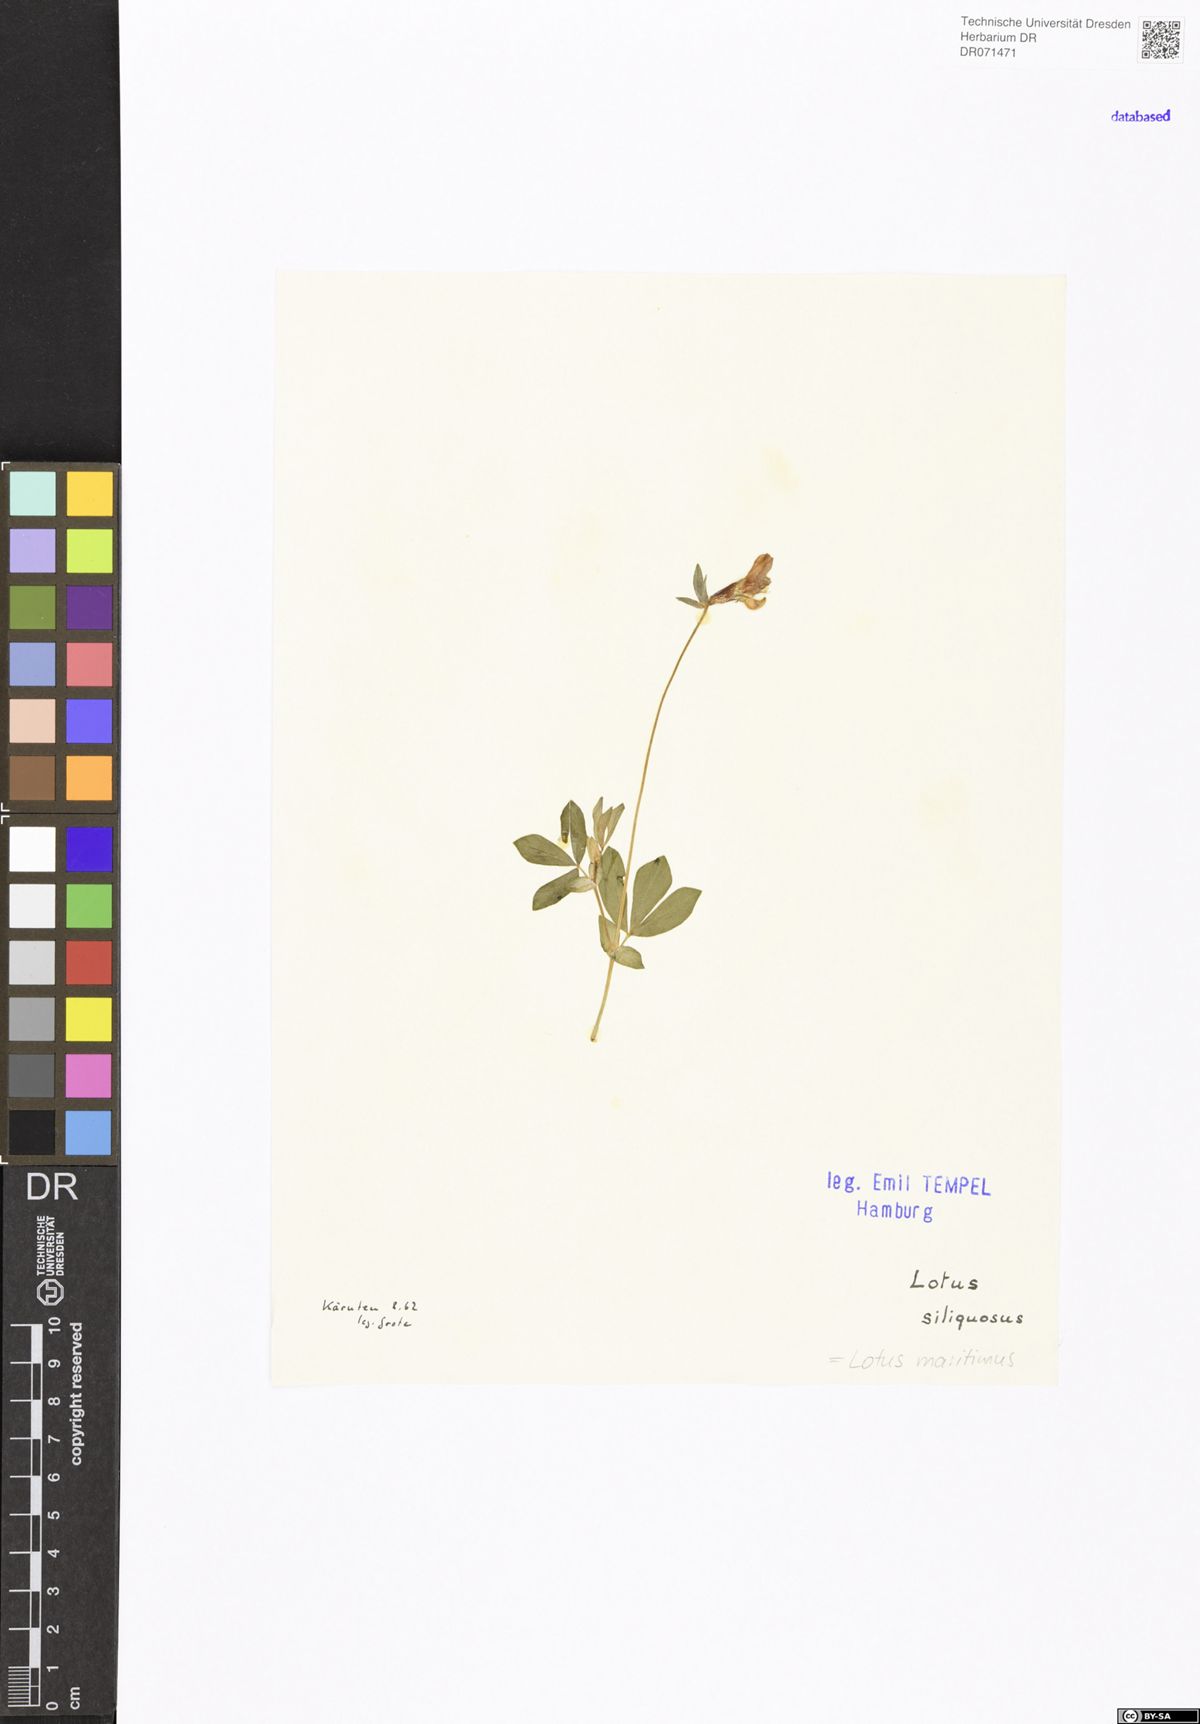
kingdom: Plantae
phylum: Tracheophyta
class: Magnoliopsida
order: Fabales
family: Fabaceae
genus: Lotus
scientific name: Lotus maritimus
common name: Dragon's-teeth
